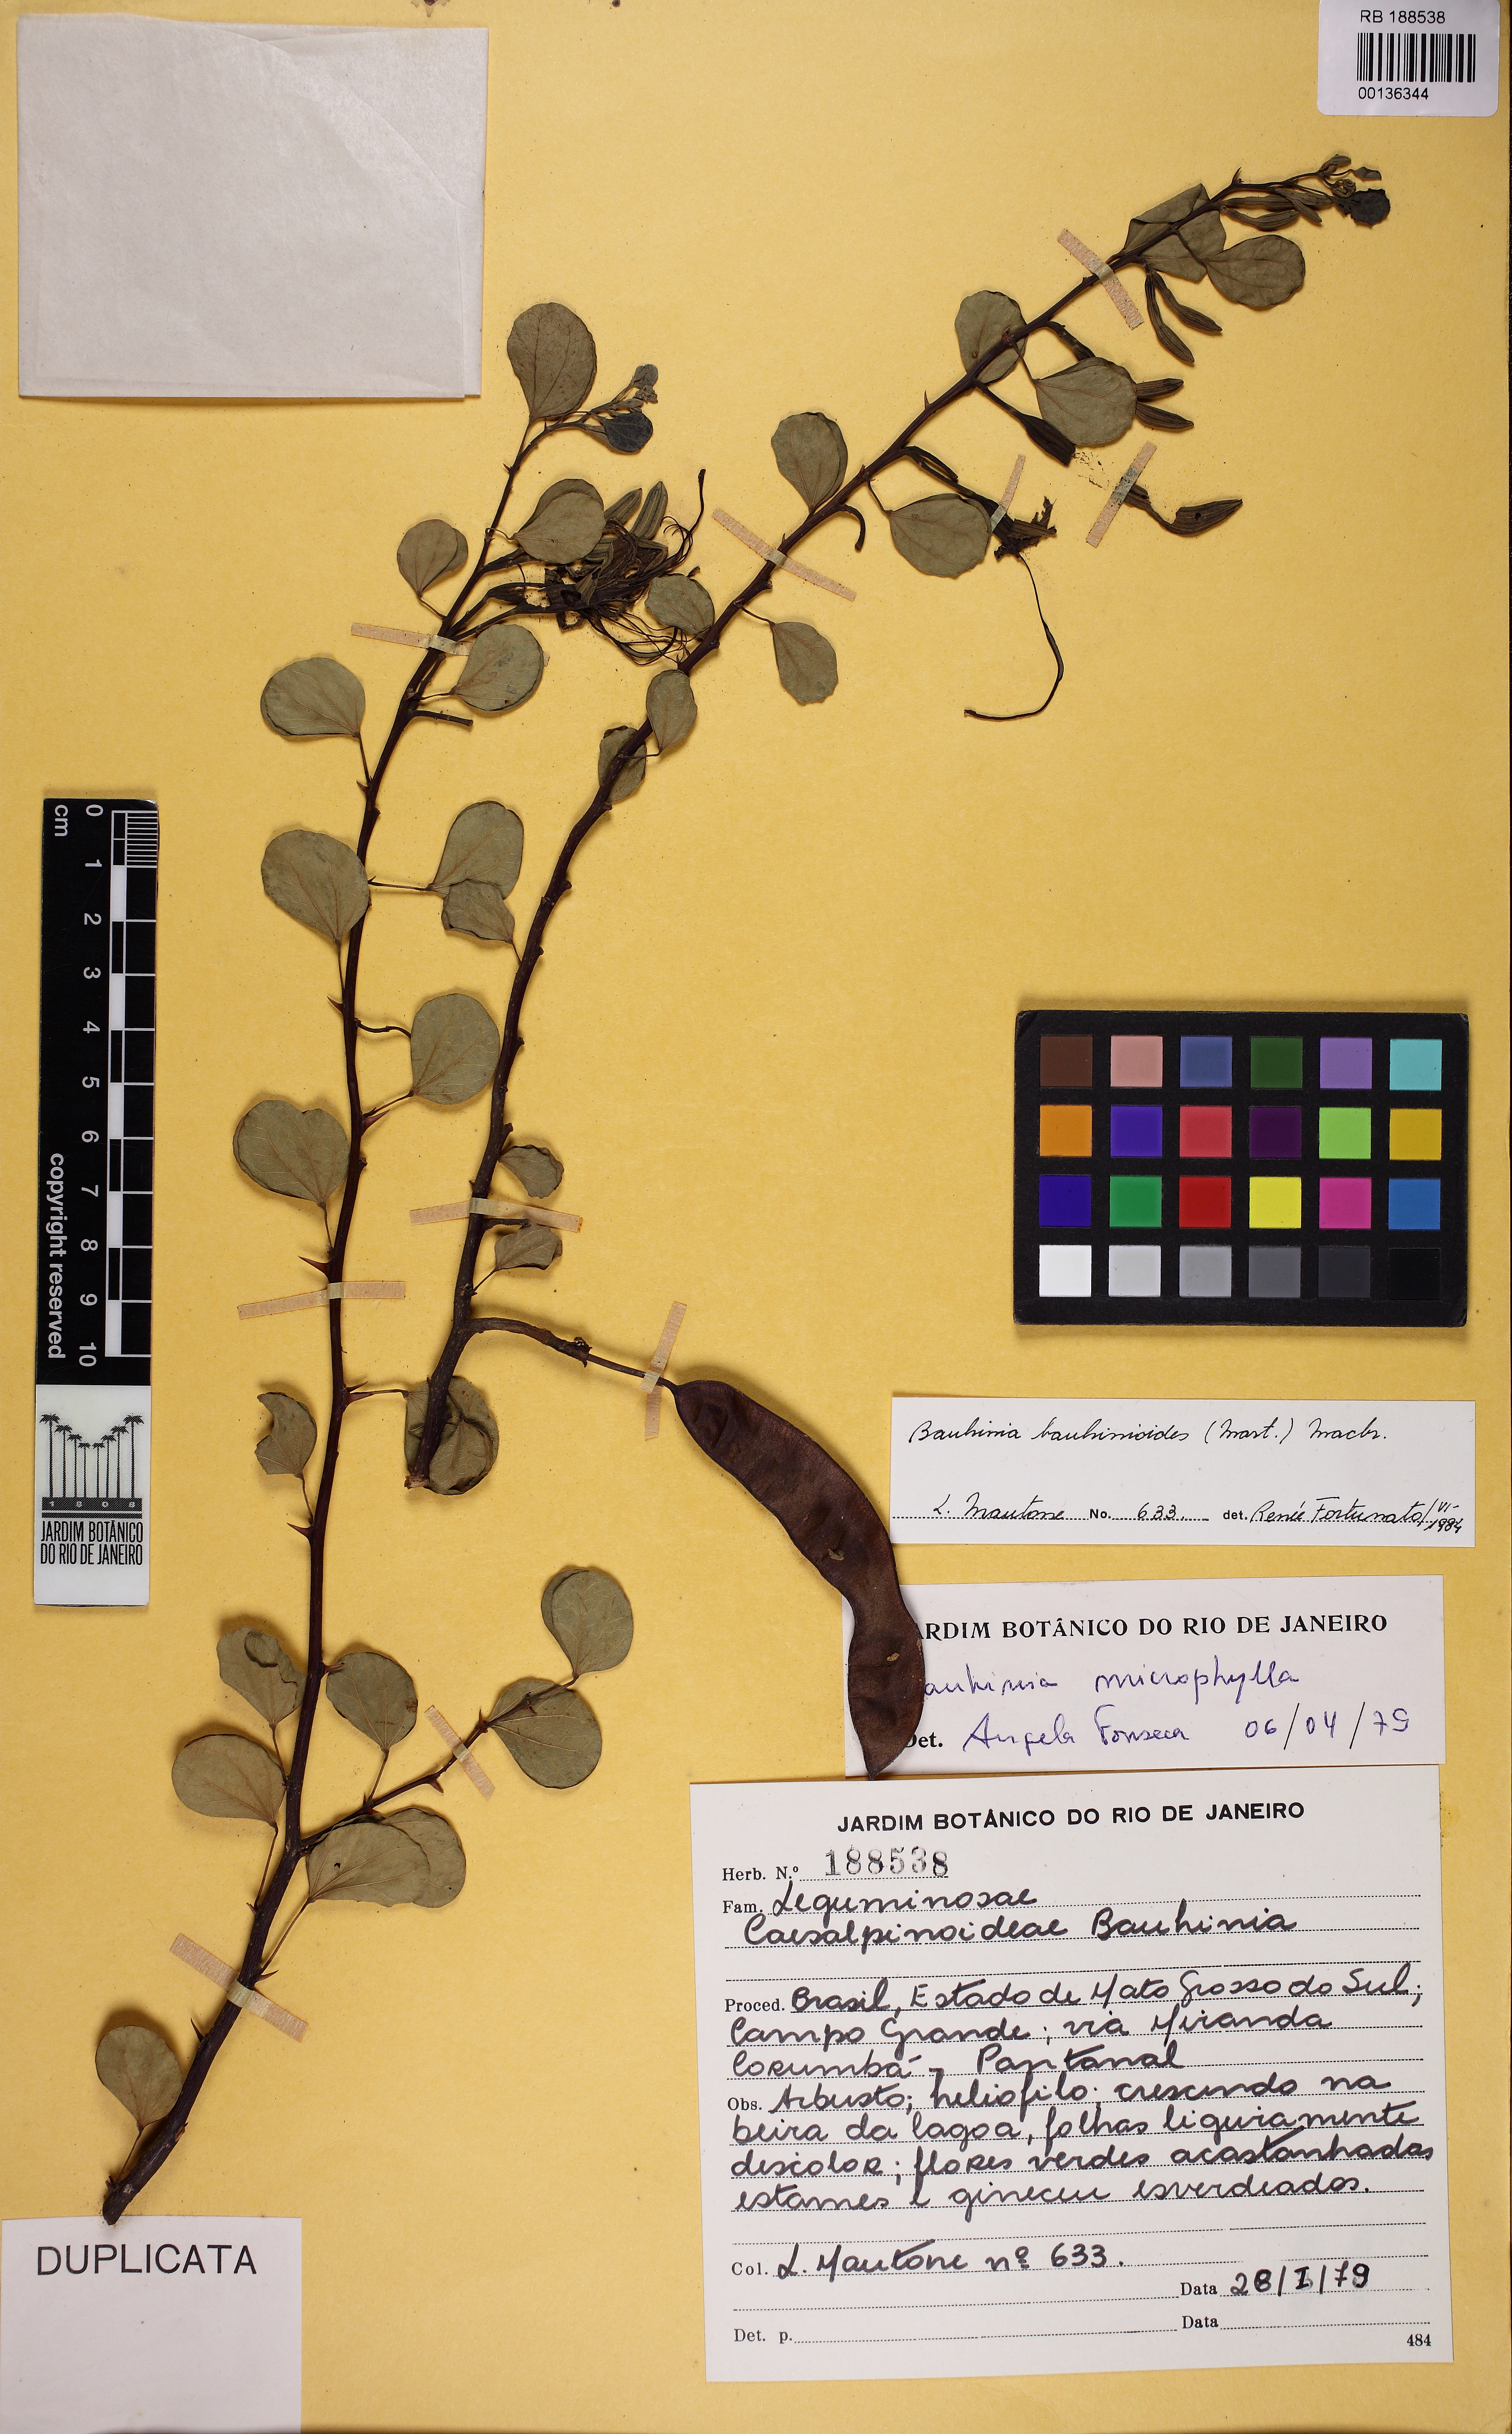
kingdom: Plantae
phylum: Tracheophyta
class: Magnoliopsida
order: Fabales
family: Fabaceae
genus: Bauhinia
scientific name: Bauhinia bauhinioides
